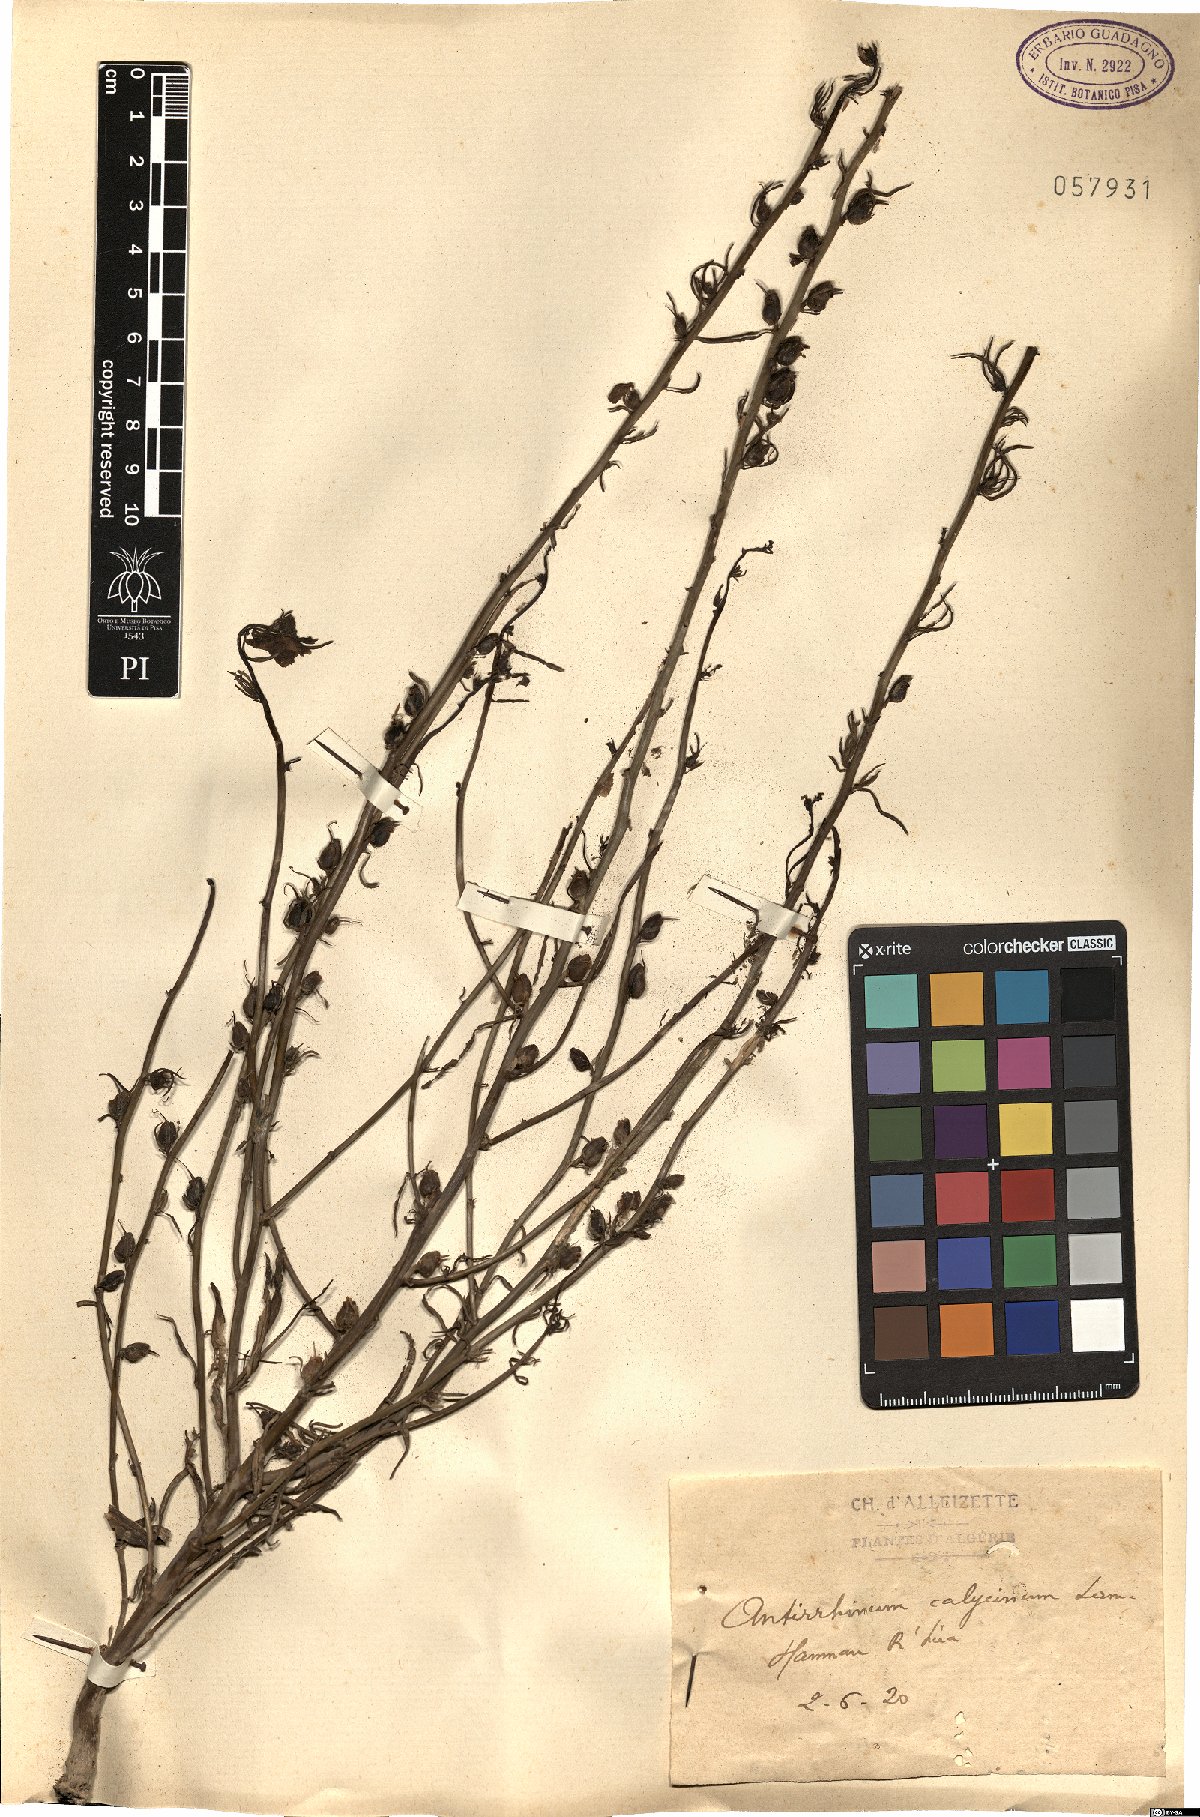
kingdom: Plantae
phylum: Tracheophyta
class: Magnoliopsida
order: Lamiales
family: Plantaginaceae
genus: Chaenorhinum
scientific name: Chaenorhinum calycinum
